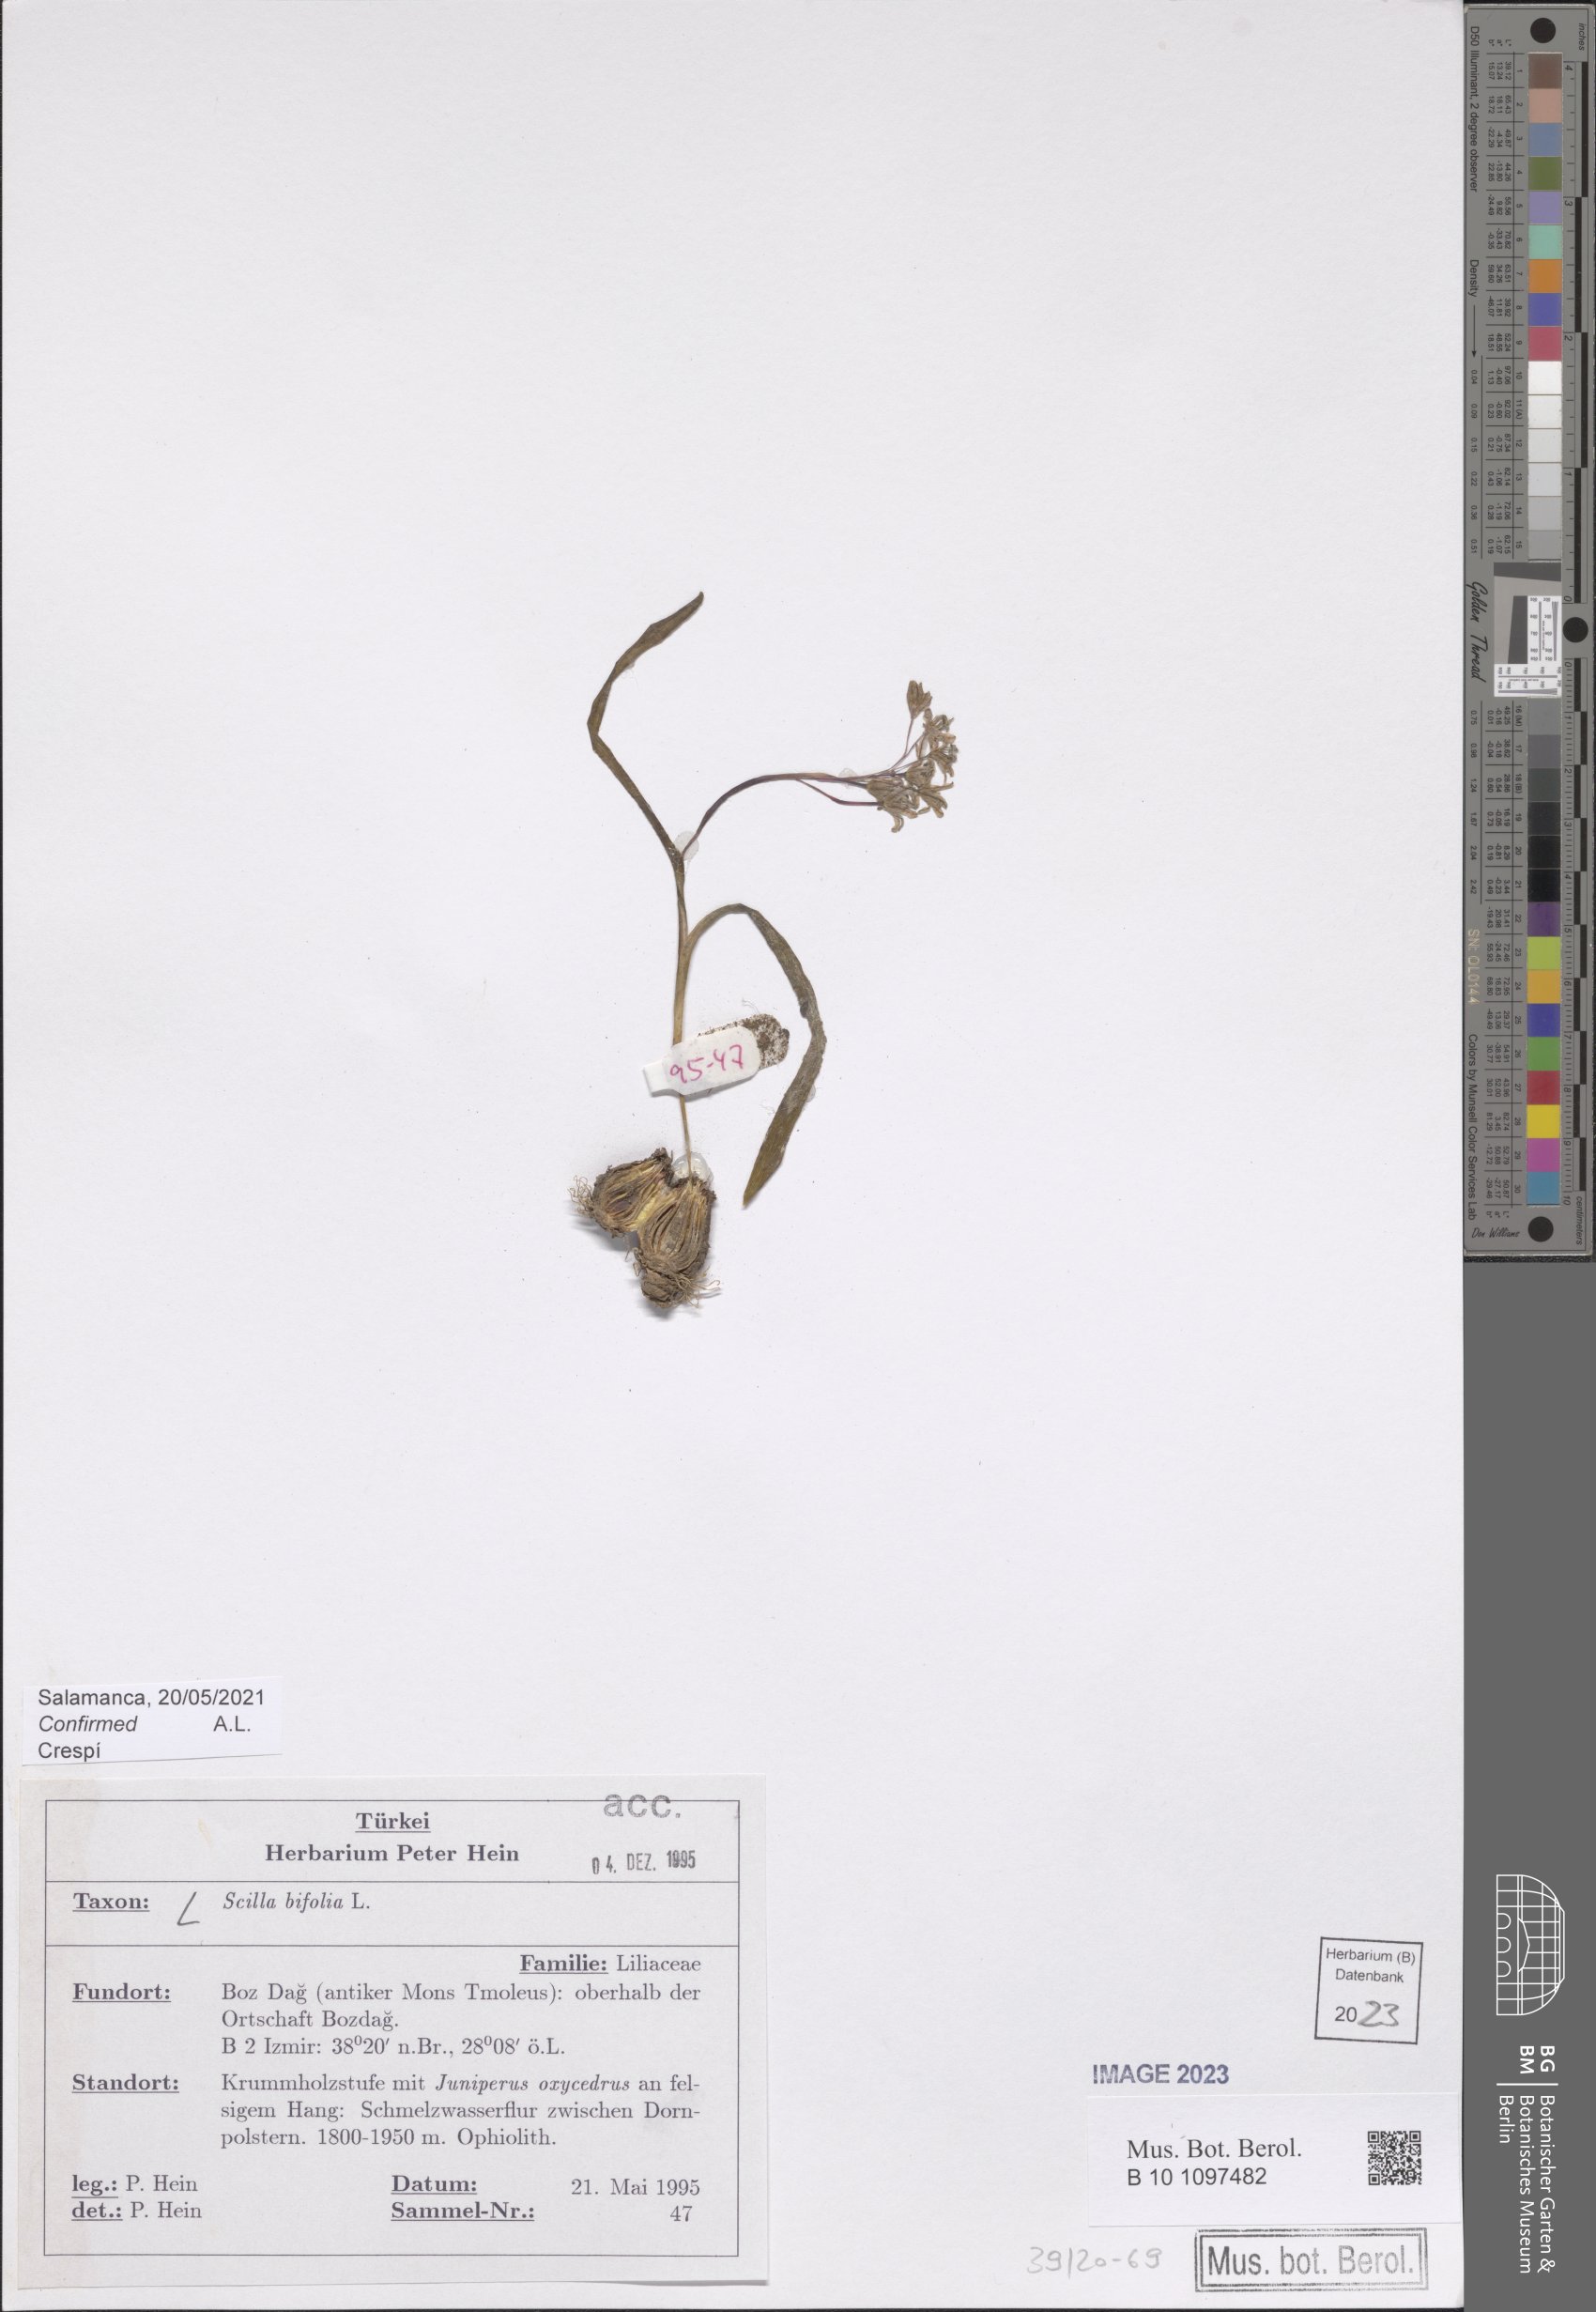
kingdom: Plantae
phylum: Tracheophyta
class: Liliopsida
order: Asparagales
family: Asparagaceae
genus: Scilla
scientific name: Scilla bifolia
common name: Alpine squill
